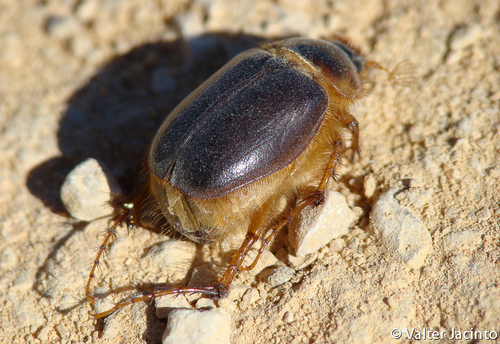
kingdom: Animalia
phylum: Arthropoda
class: Insecta
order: Coleoptera
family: Scarabaeidae
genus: Ceramida
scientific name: Ceramida bedeaui
